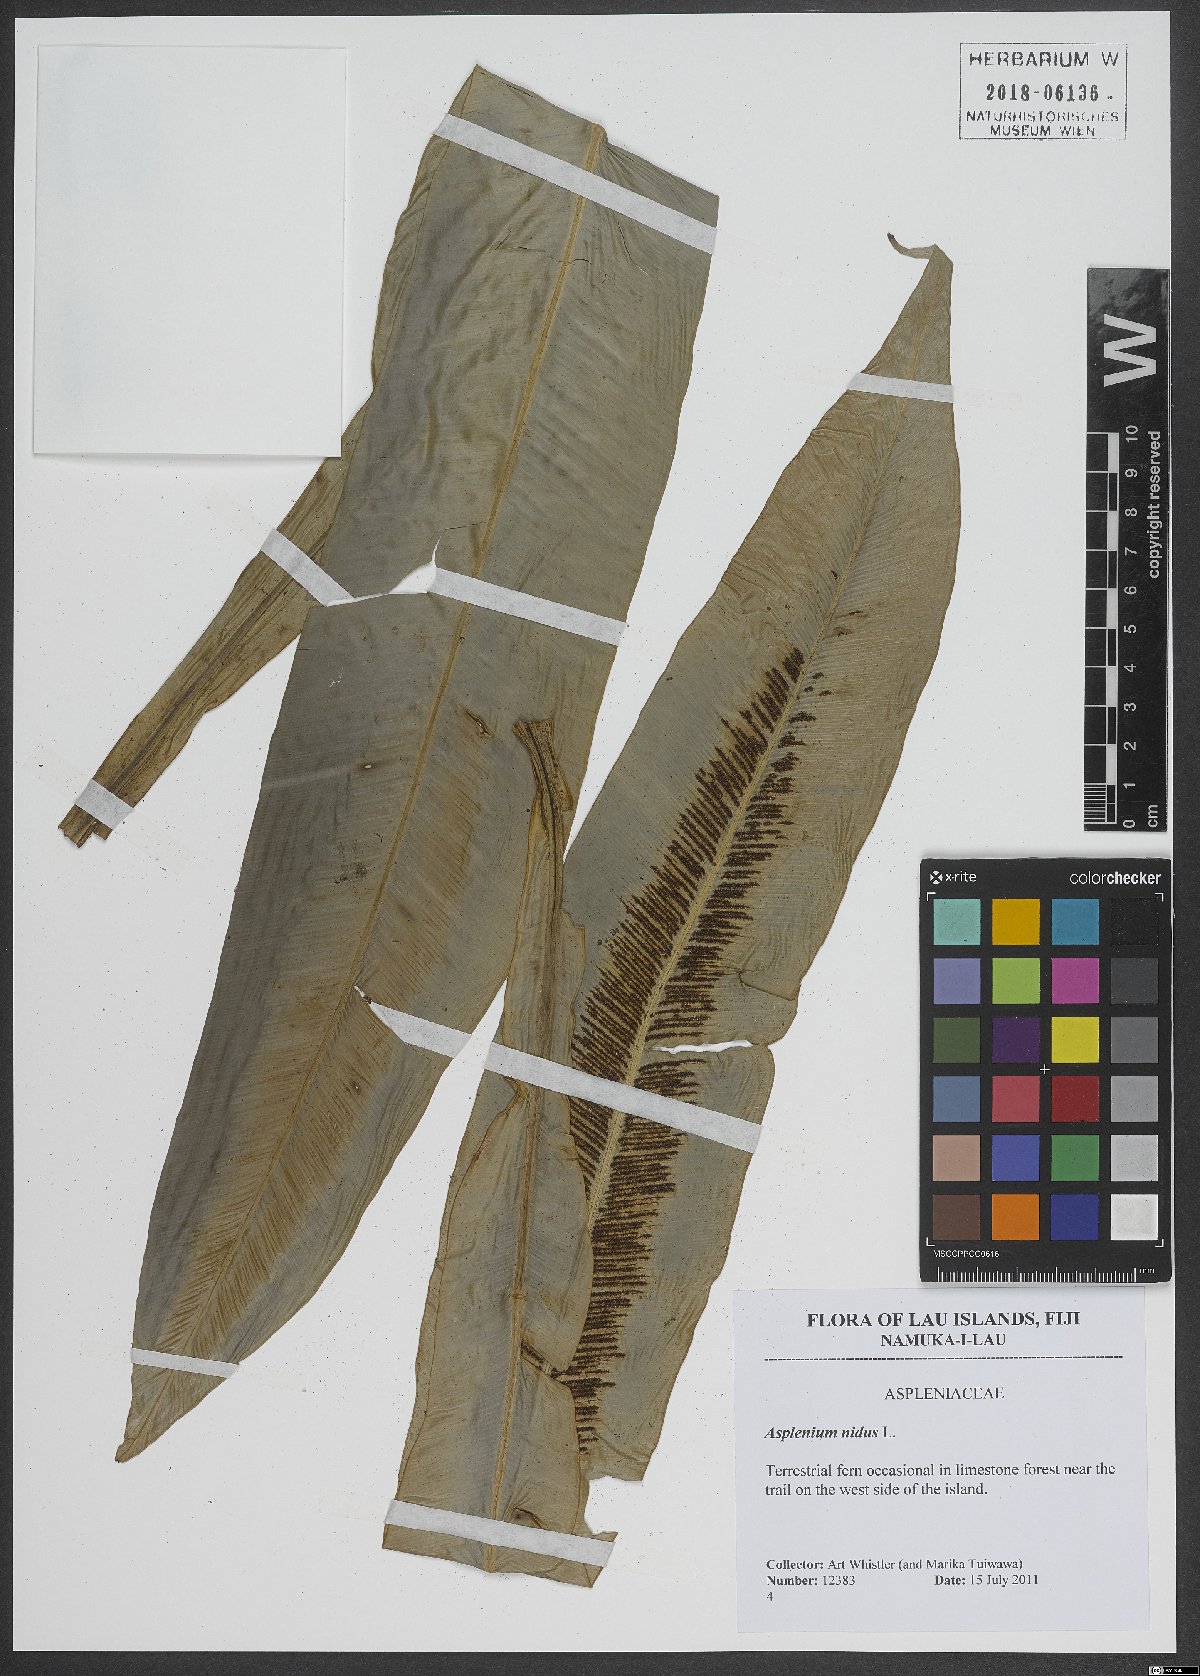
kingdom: Plantae
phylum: Tracheophyta
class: Polypodiopsida
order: Polypodiales
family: Aspleniaceae
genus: Asplenium
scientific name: Asplenium nidus
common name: Bird's-nest fern
